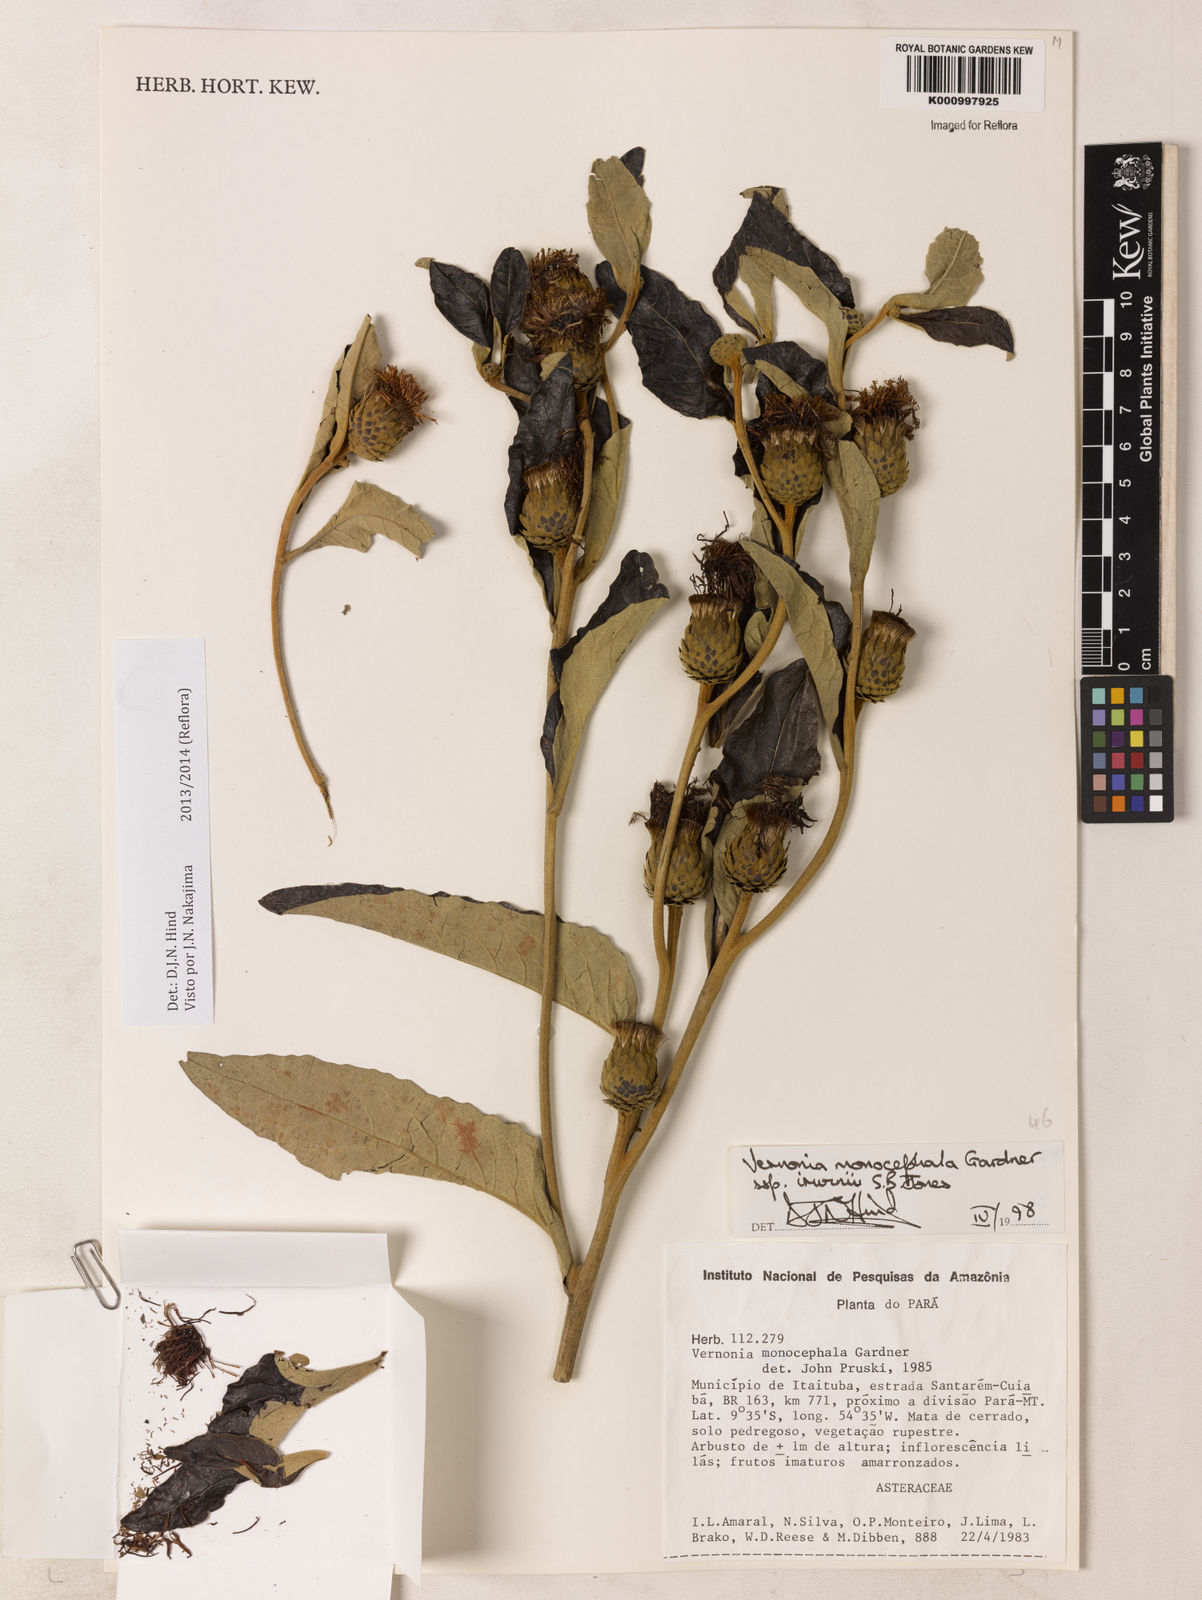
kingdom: Plantae
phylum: Tracheophyta
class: Magnoliopsida
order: Asterales
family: Asteraceae
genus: Lessingianthus
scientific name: Lessingianthus semirii
